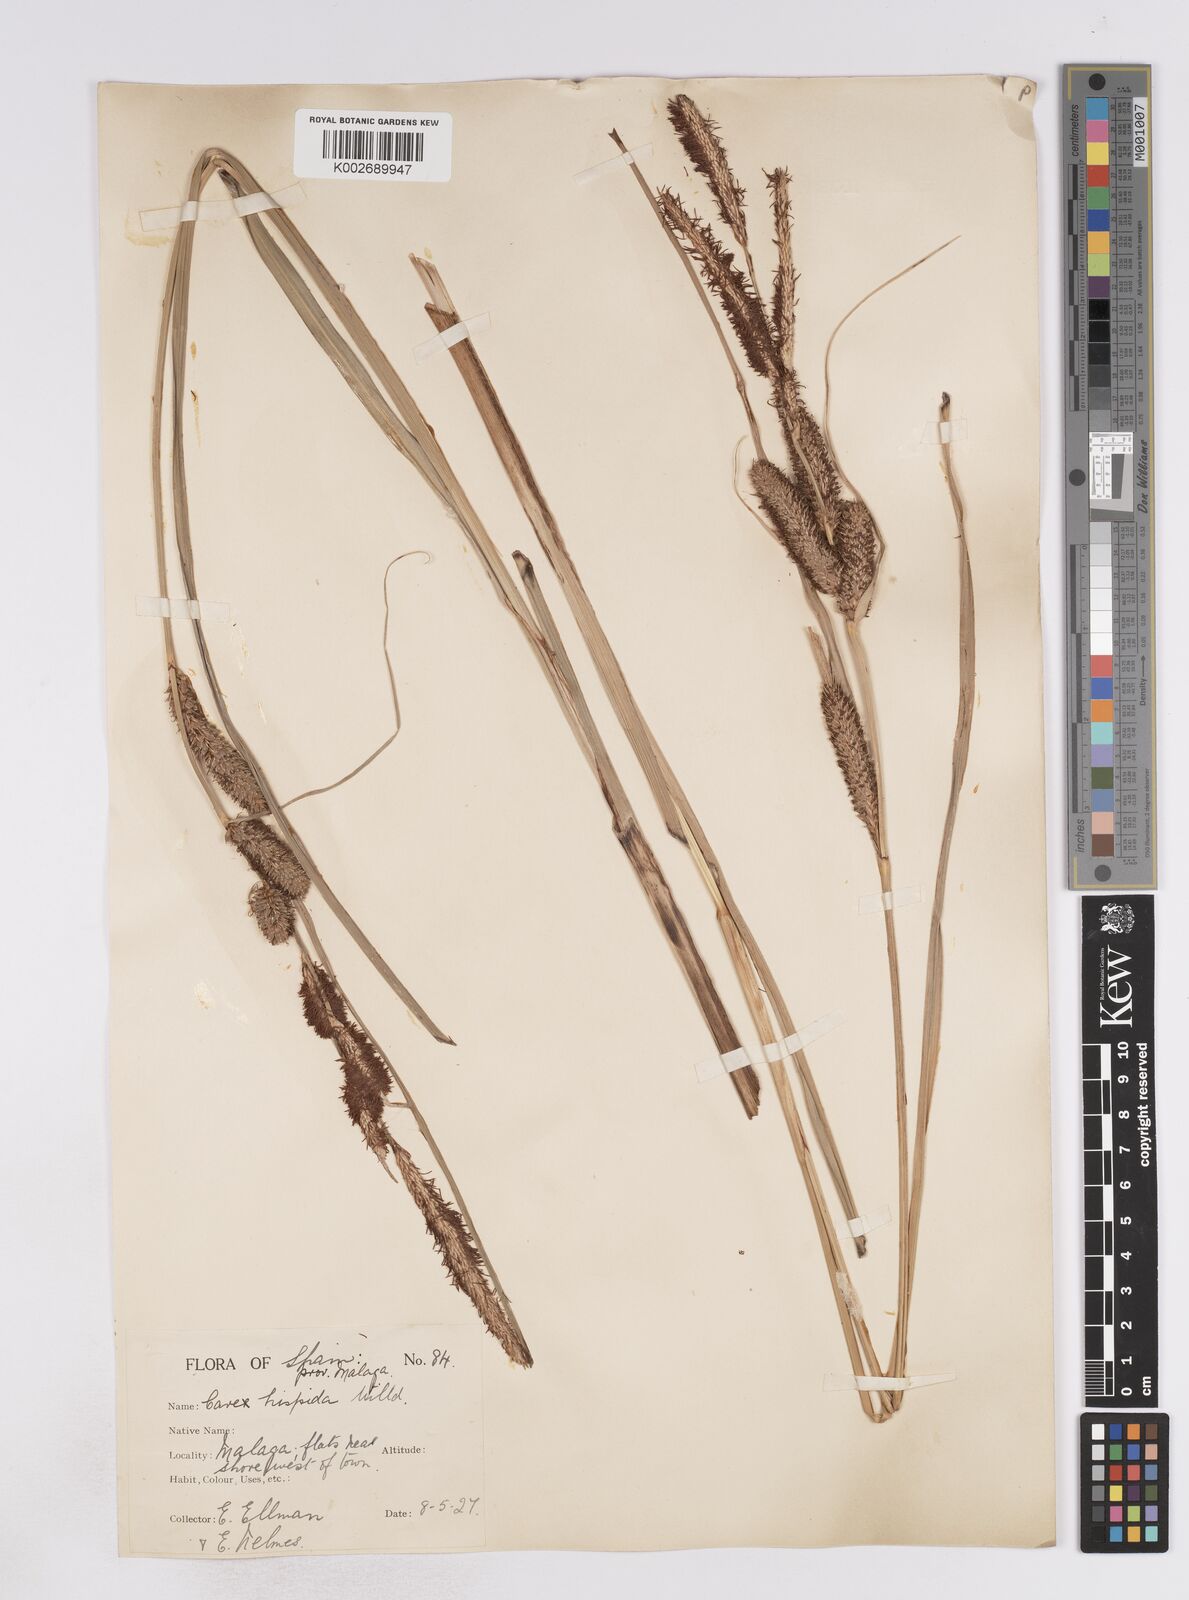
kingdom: Plantae
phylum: Tracheophyta
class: Liliopsida
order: Poales
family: Cyperaceae
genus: Carex
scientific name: Carex hispida
